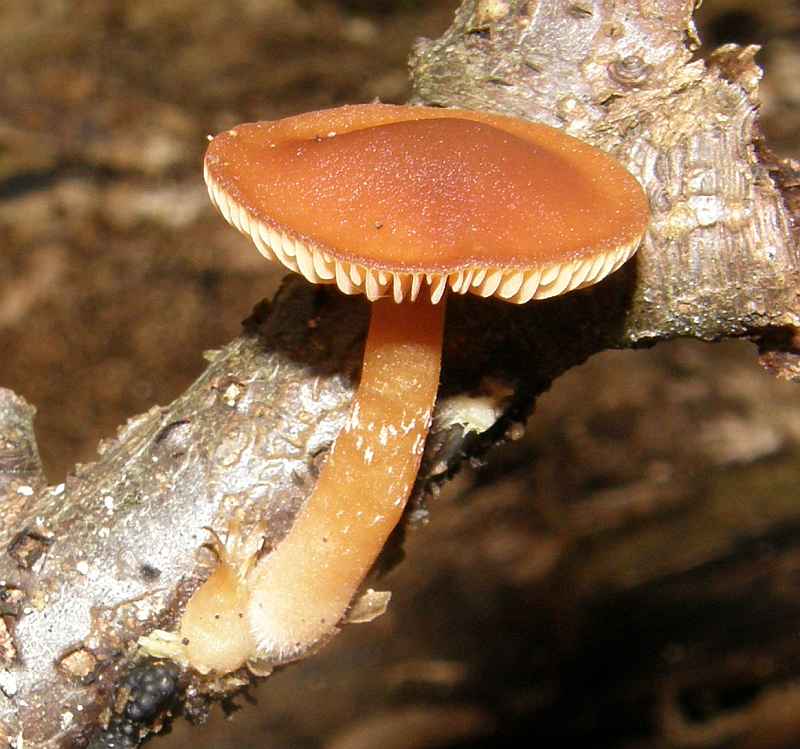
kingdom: Fungi
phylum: Basidiomycota
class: Agaricomycetes
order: Agaricales
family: Tubariaceae
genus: Tubaria
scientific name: Tubaria furfuracea
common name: kliddet fnughat
